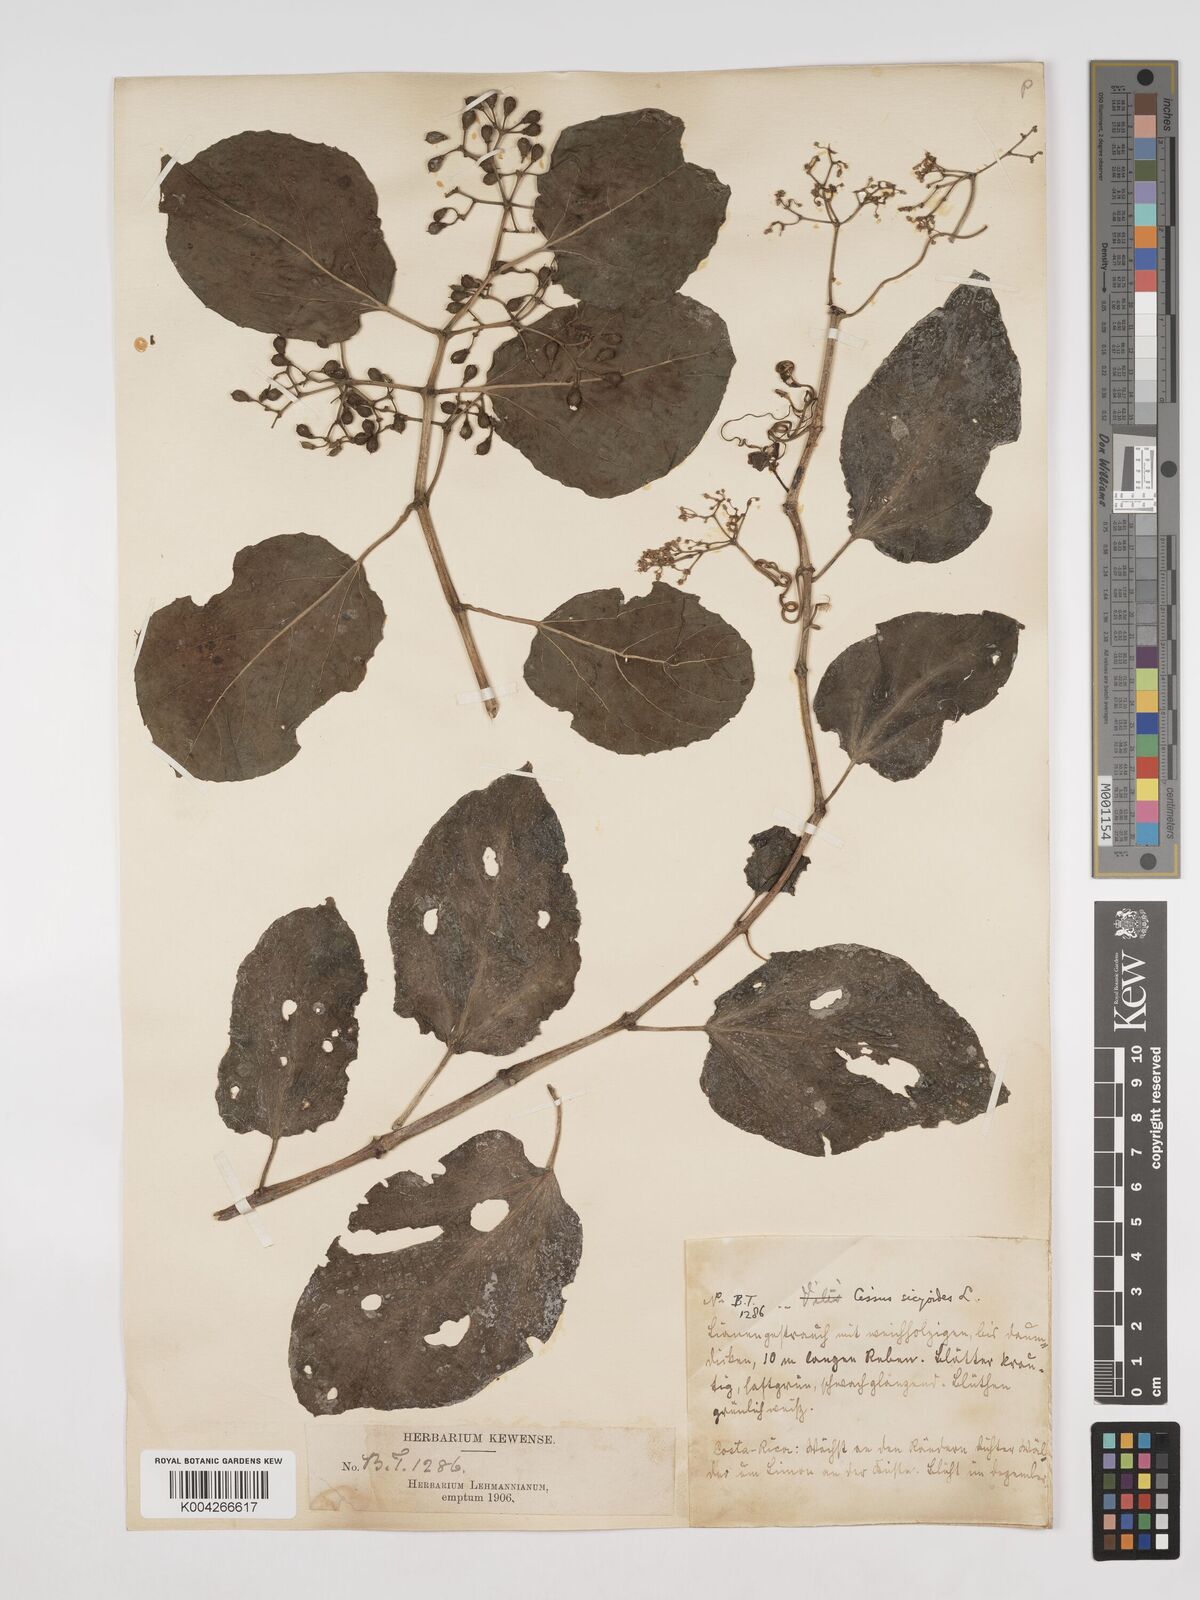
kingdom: Plantae
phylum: Tracheophyta
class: Magnoliopsida
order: Vitales
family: Vitaceae
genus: Cissus
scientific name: Cissus
